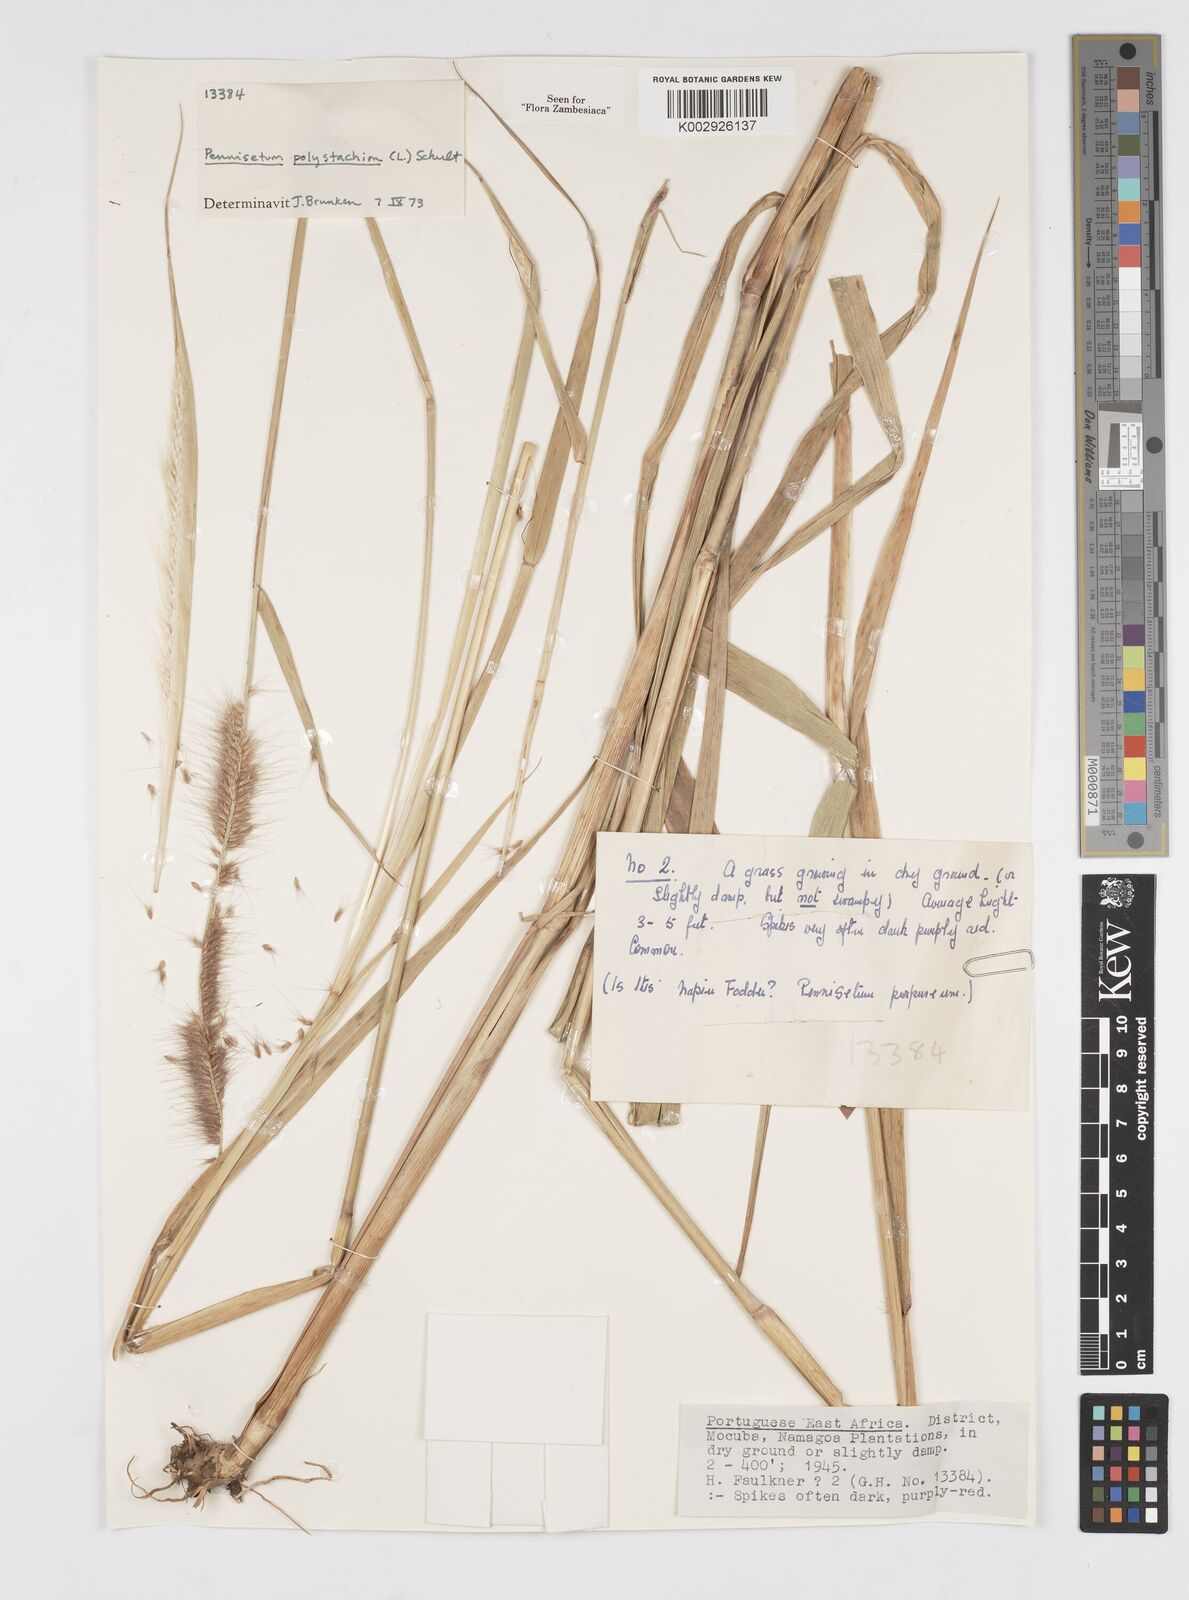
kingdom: Plantae
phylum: Tracheophyta
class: Liliopsida
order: Poales
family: Poaceae
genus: Setaria
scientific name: Setaria parviflora
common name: Knotroot bristle-grass
